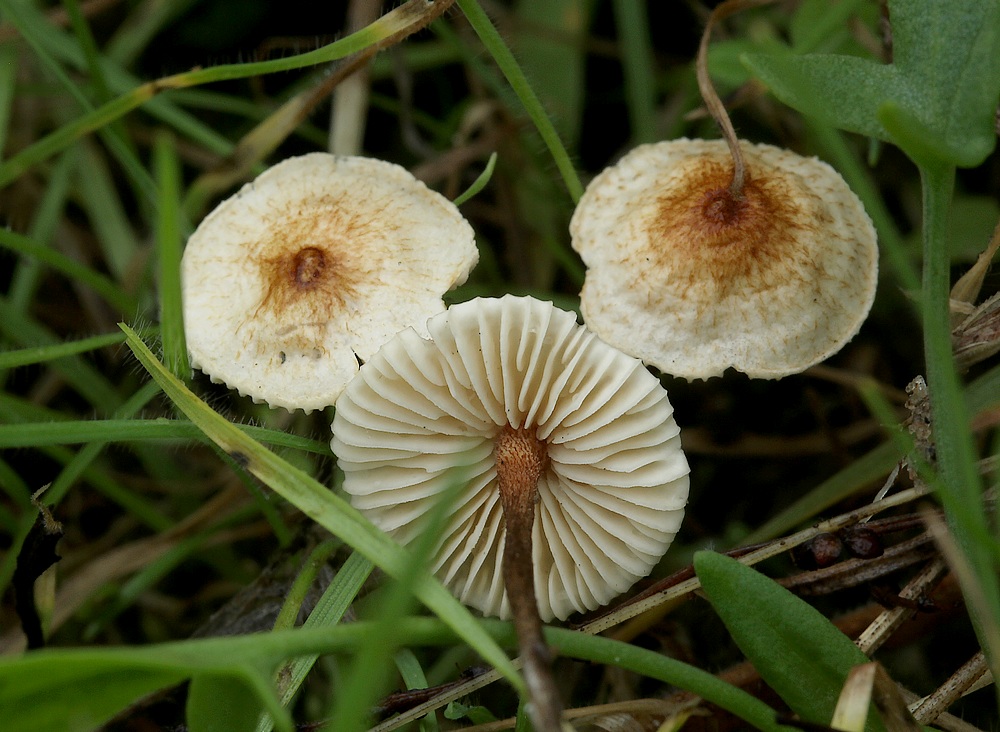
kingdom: Fungi
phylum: Basidiomycota
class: Agaricomycetes
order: Agaricales
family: Marasmiaceae
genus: Crinipellis
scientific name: Crinipellis scabella
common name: børstefod
